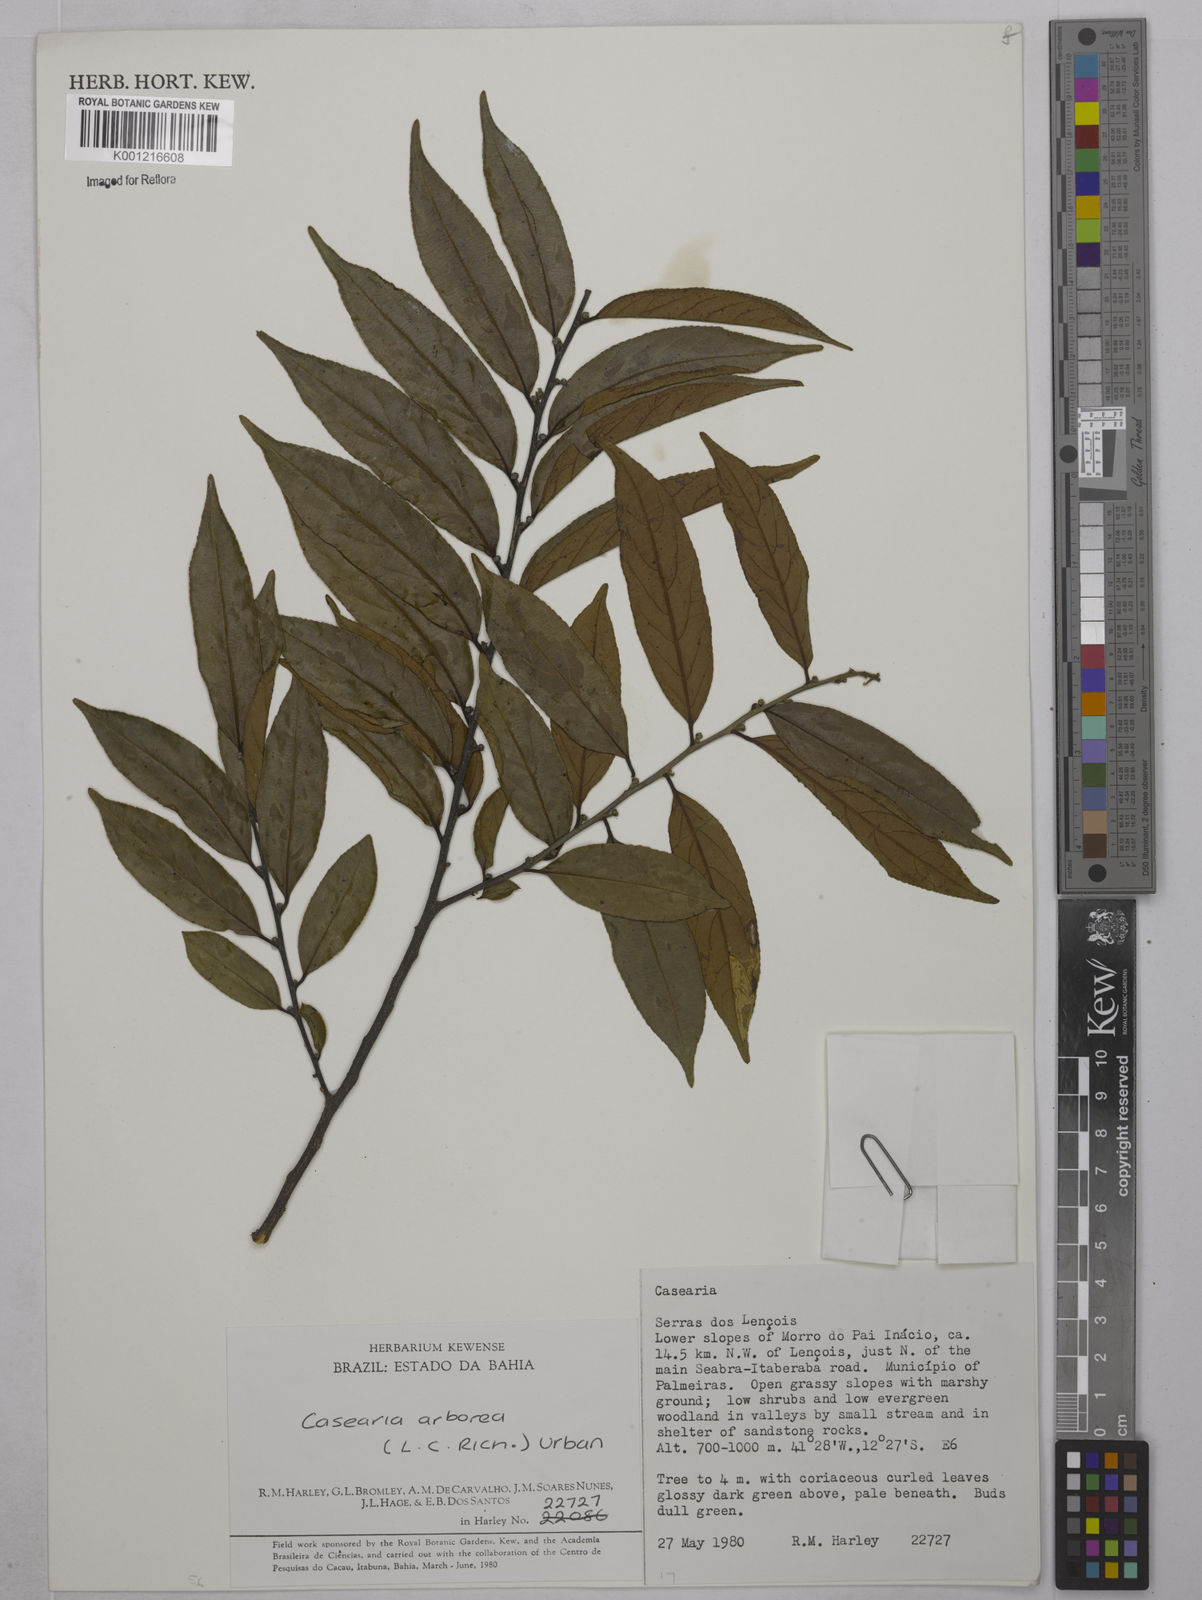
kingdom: Plantae
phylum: Tracheophyta
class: Magnoliopsida
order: Malpighiales
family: Salicaceae
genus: Casearia
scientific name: Casearia arborea
